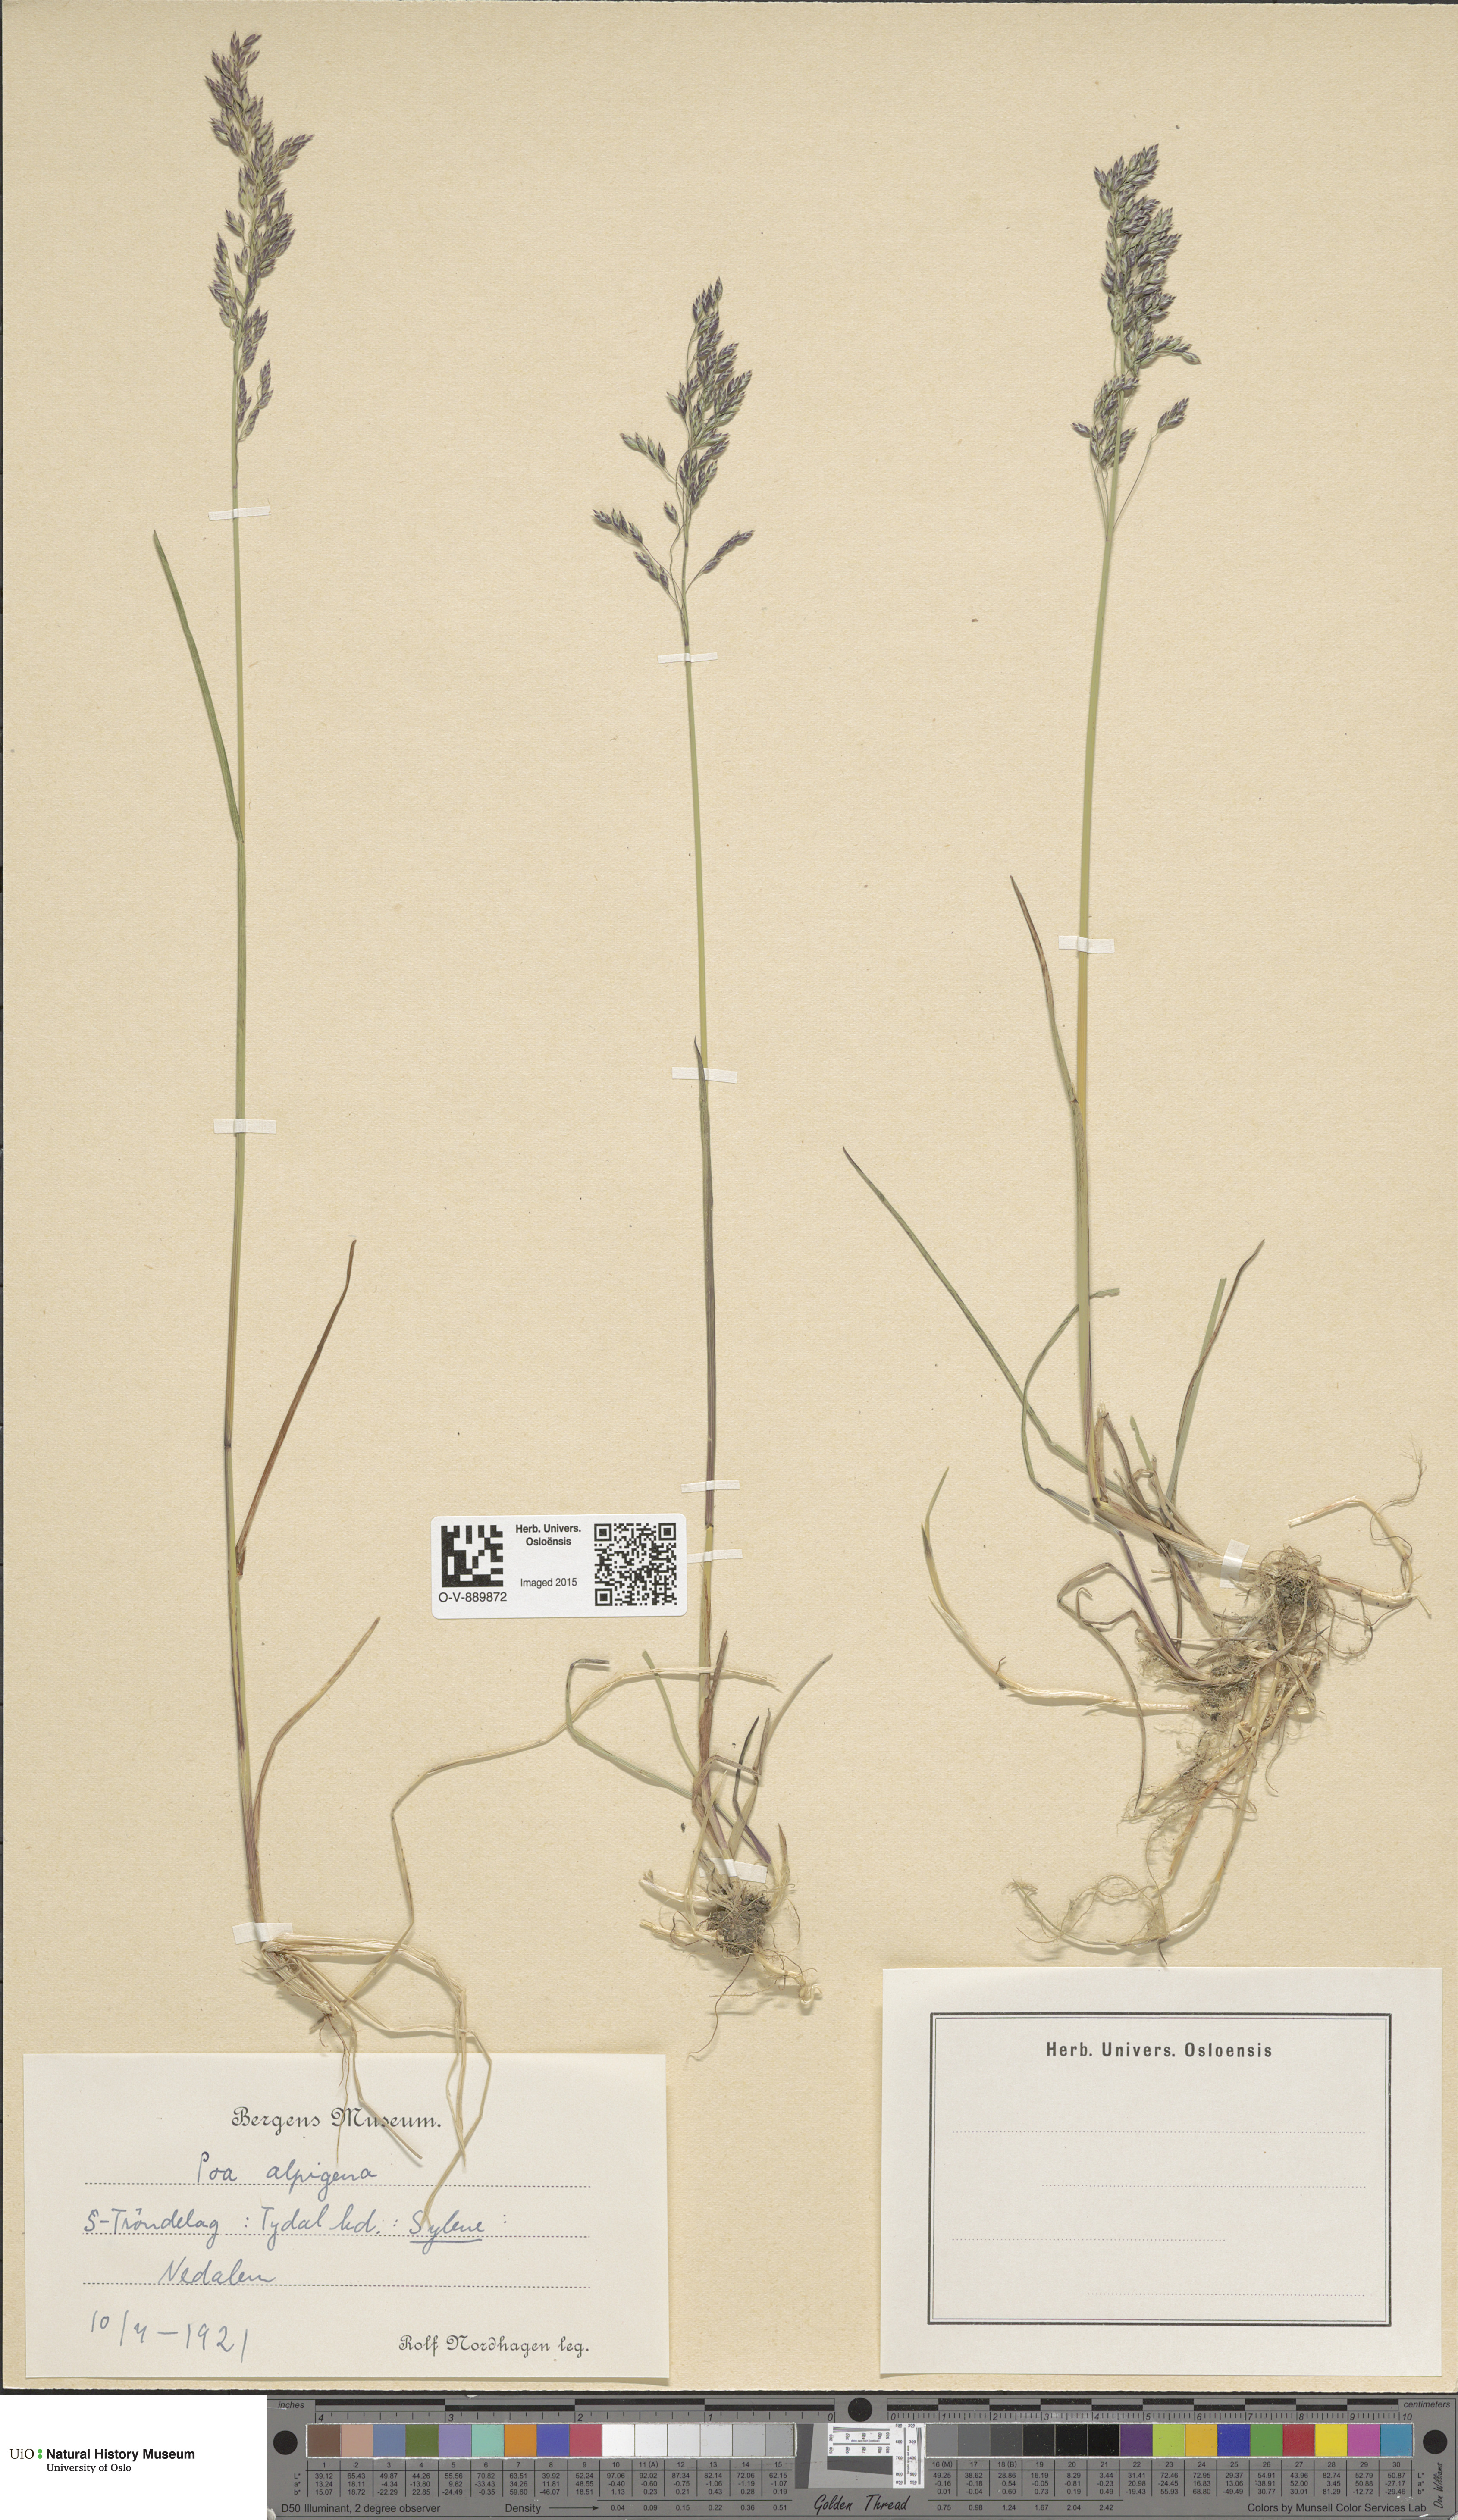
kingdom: Plantae
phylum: Tracheophyta
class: Liliopsida
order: Poales
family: Poaceae
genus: Poa
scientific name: Poa alpigena
